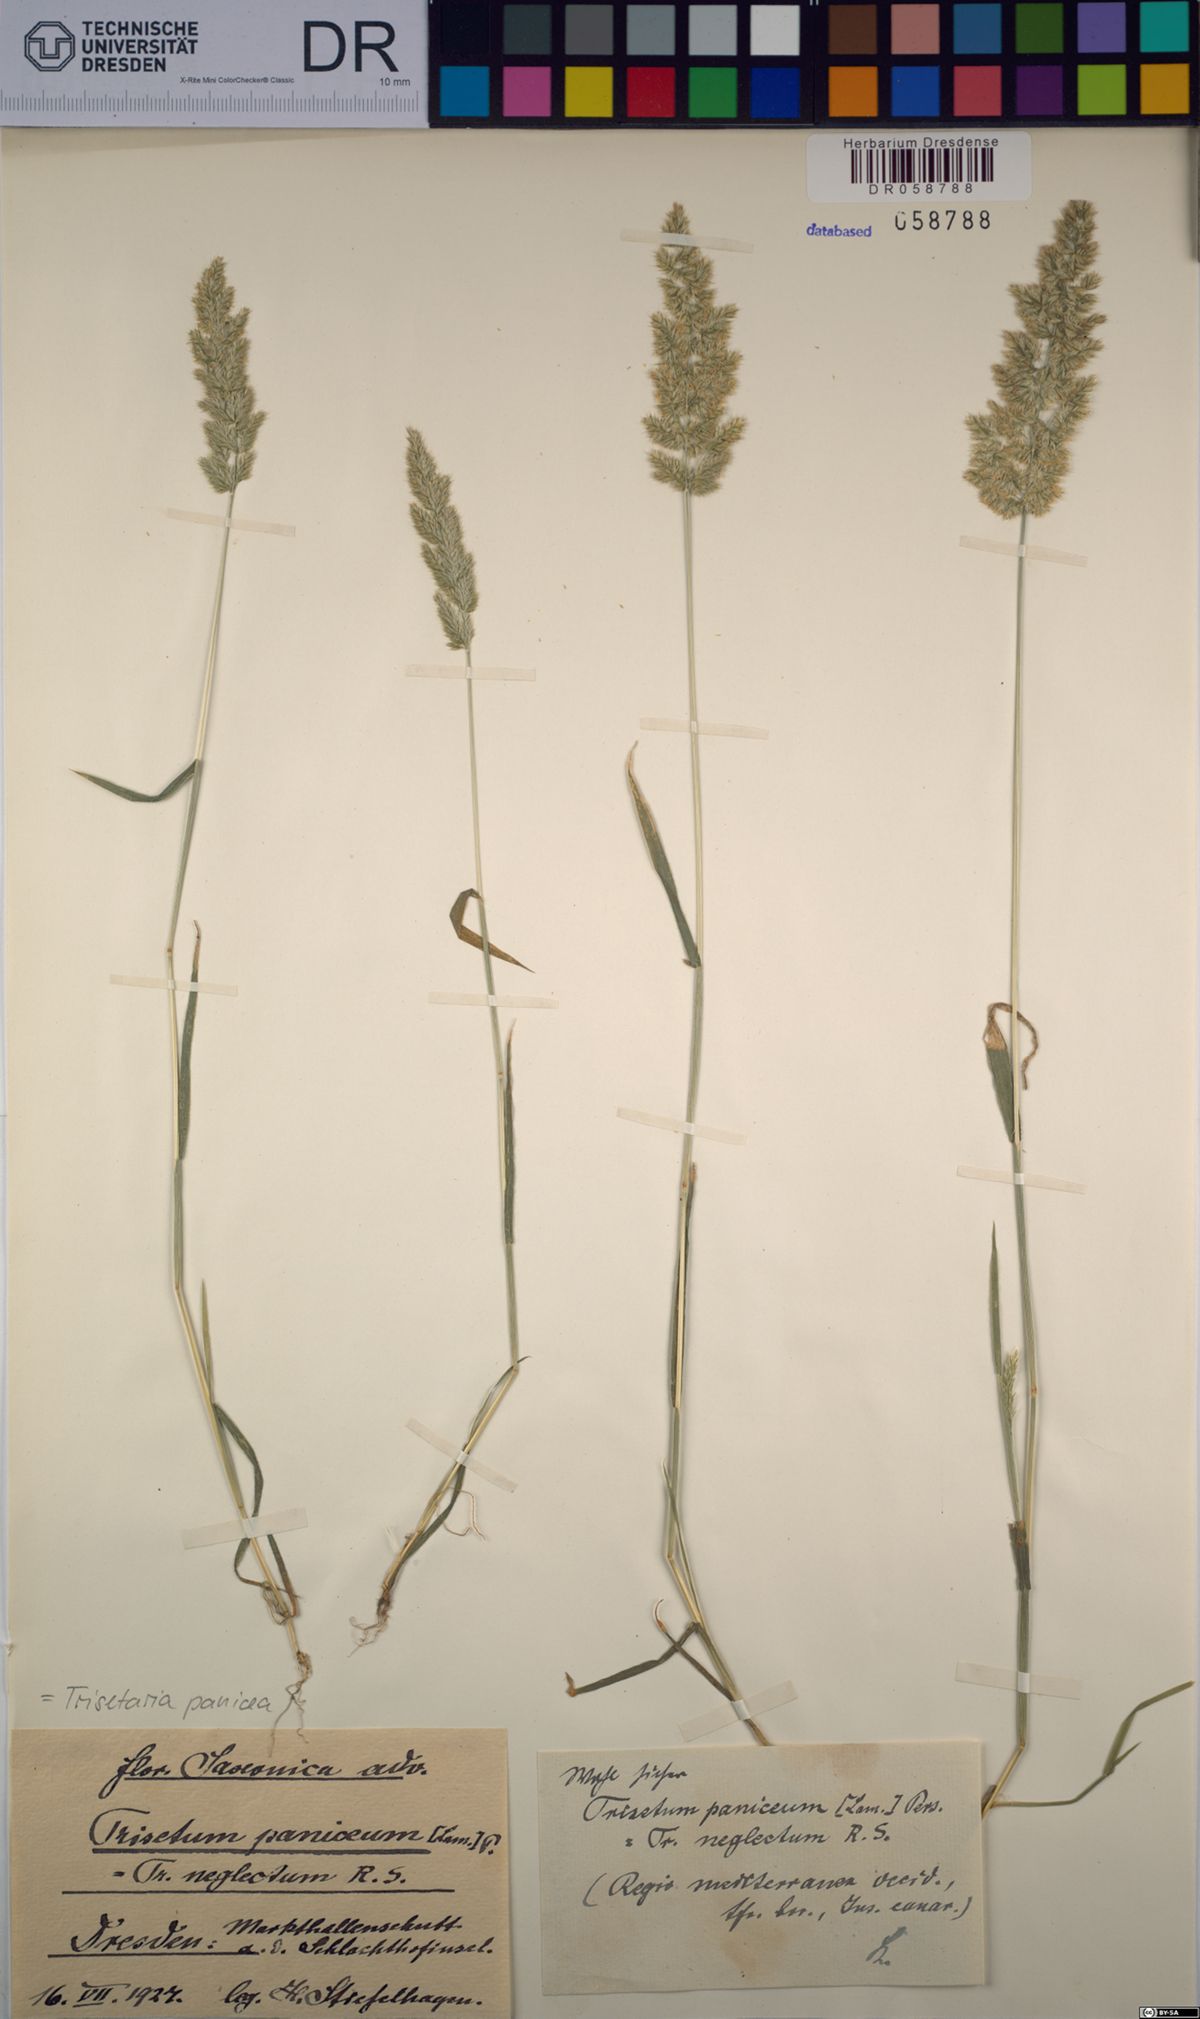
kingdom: Plantae
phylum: Tracheophyta
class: Liliopsida
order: Poales
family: Poaceae
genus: Trisetaria
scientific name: Trisetaria panicea
